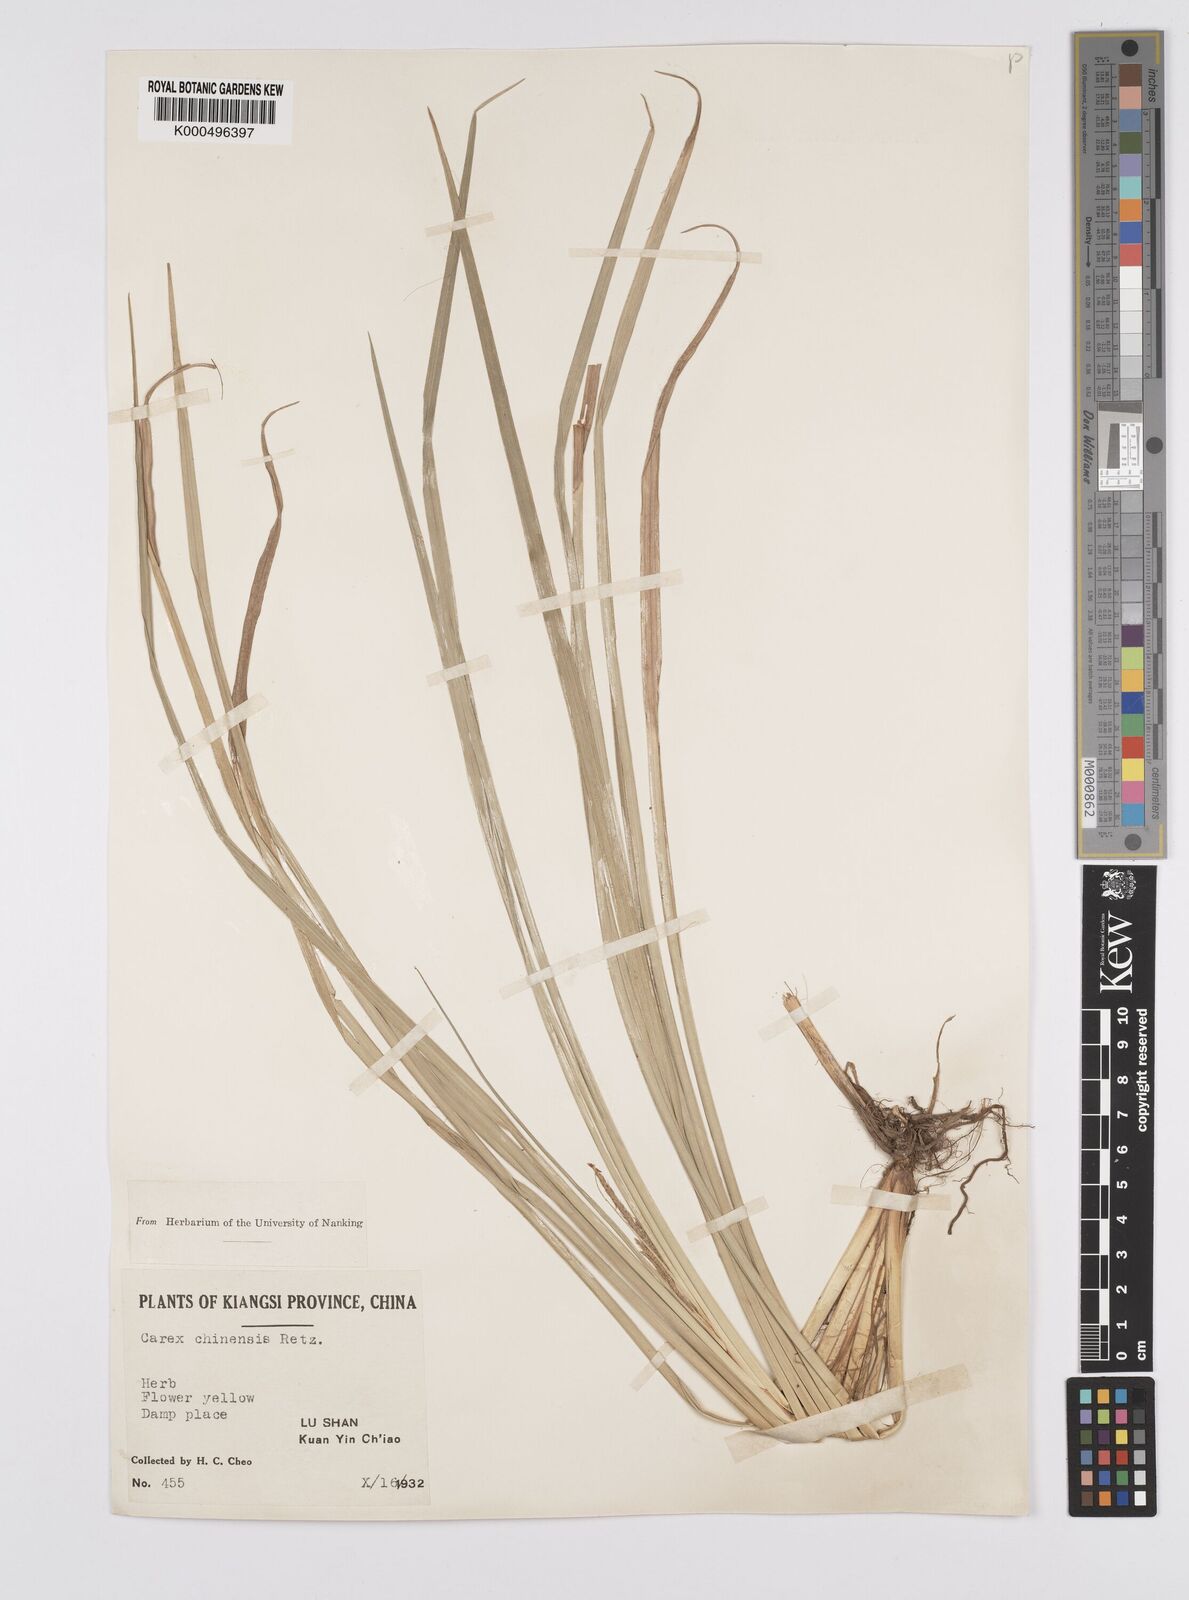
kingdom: Plantae
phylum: Tracheophyta
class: Liliopsida
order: Poales
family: Cyperaceae
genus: Carex
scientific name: Carex chinensis
